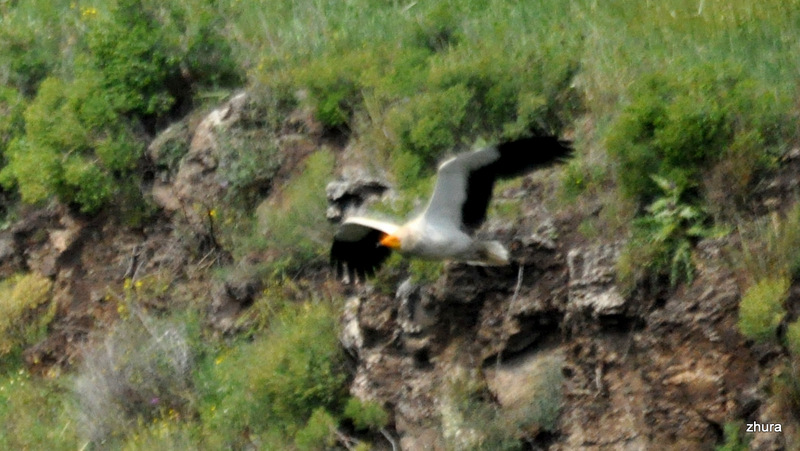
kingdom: Animalia
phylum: Chordata
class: Aves
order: Accipitriformes
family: Accipitridae
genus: Neophron
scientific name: Neophron percnopterus
